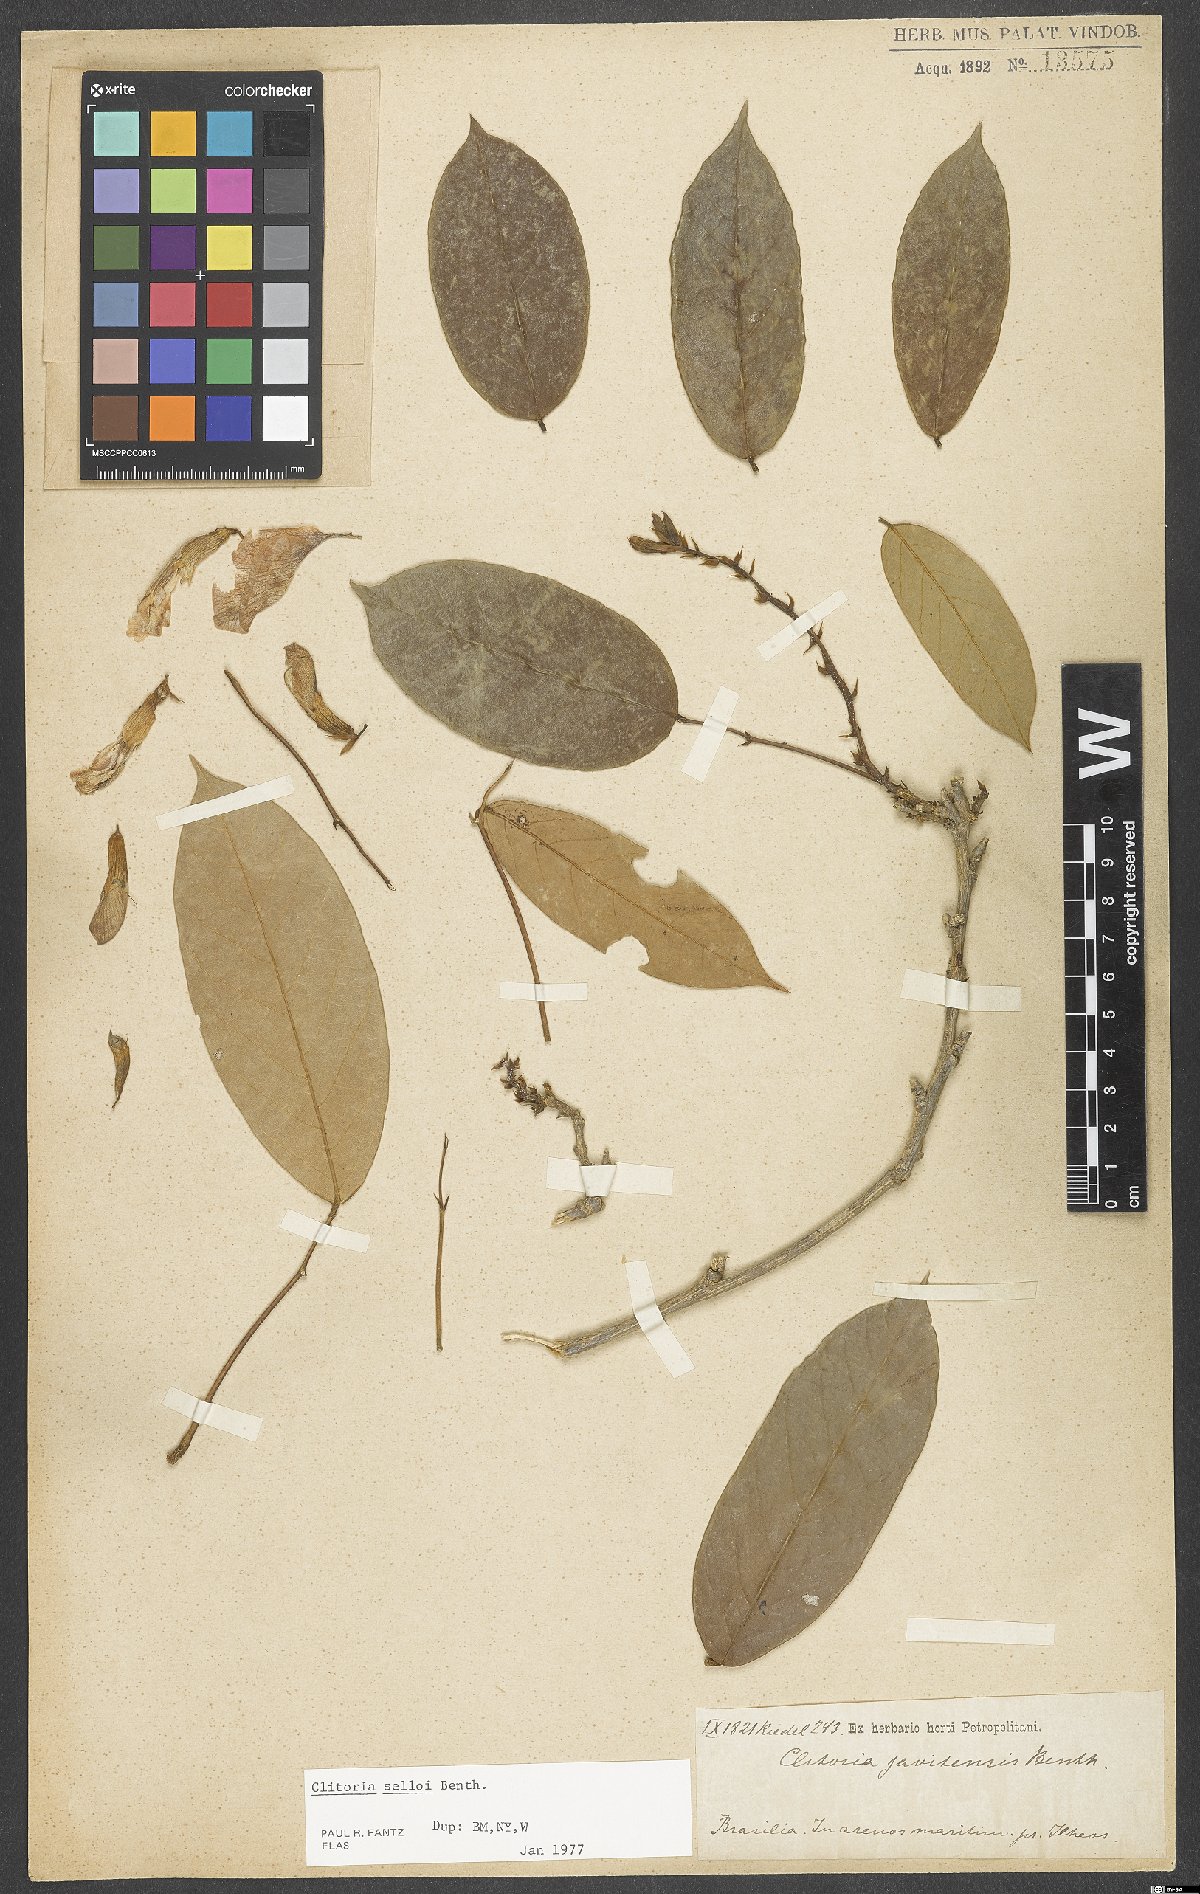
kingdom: Plantae
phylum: Tracheophyta
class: Magnoliopsida
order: Fabales
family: Fabaceae
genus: Clitoria
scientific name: Clitoria selloi
